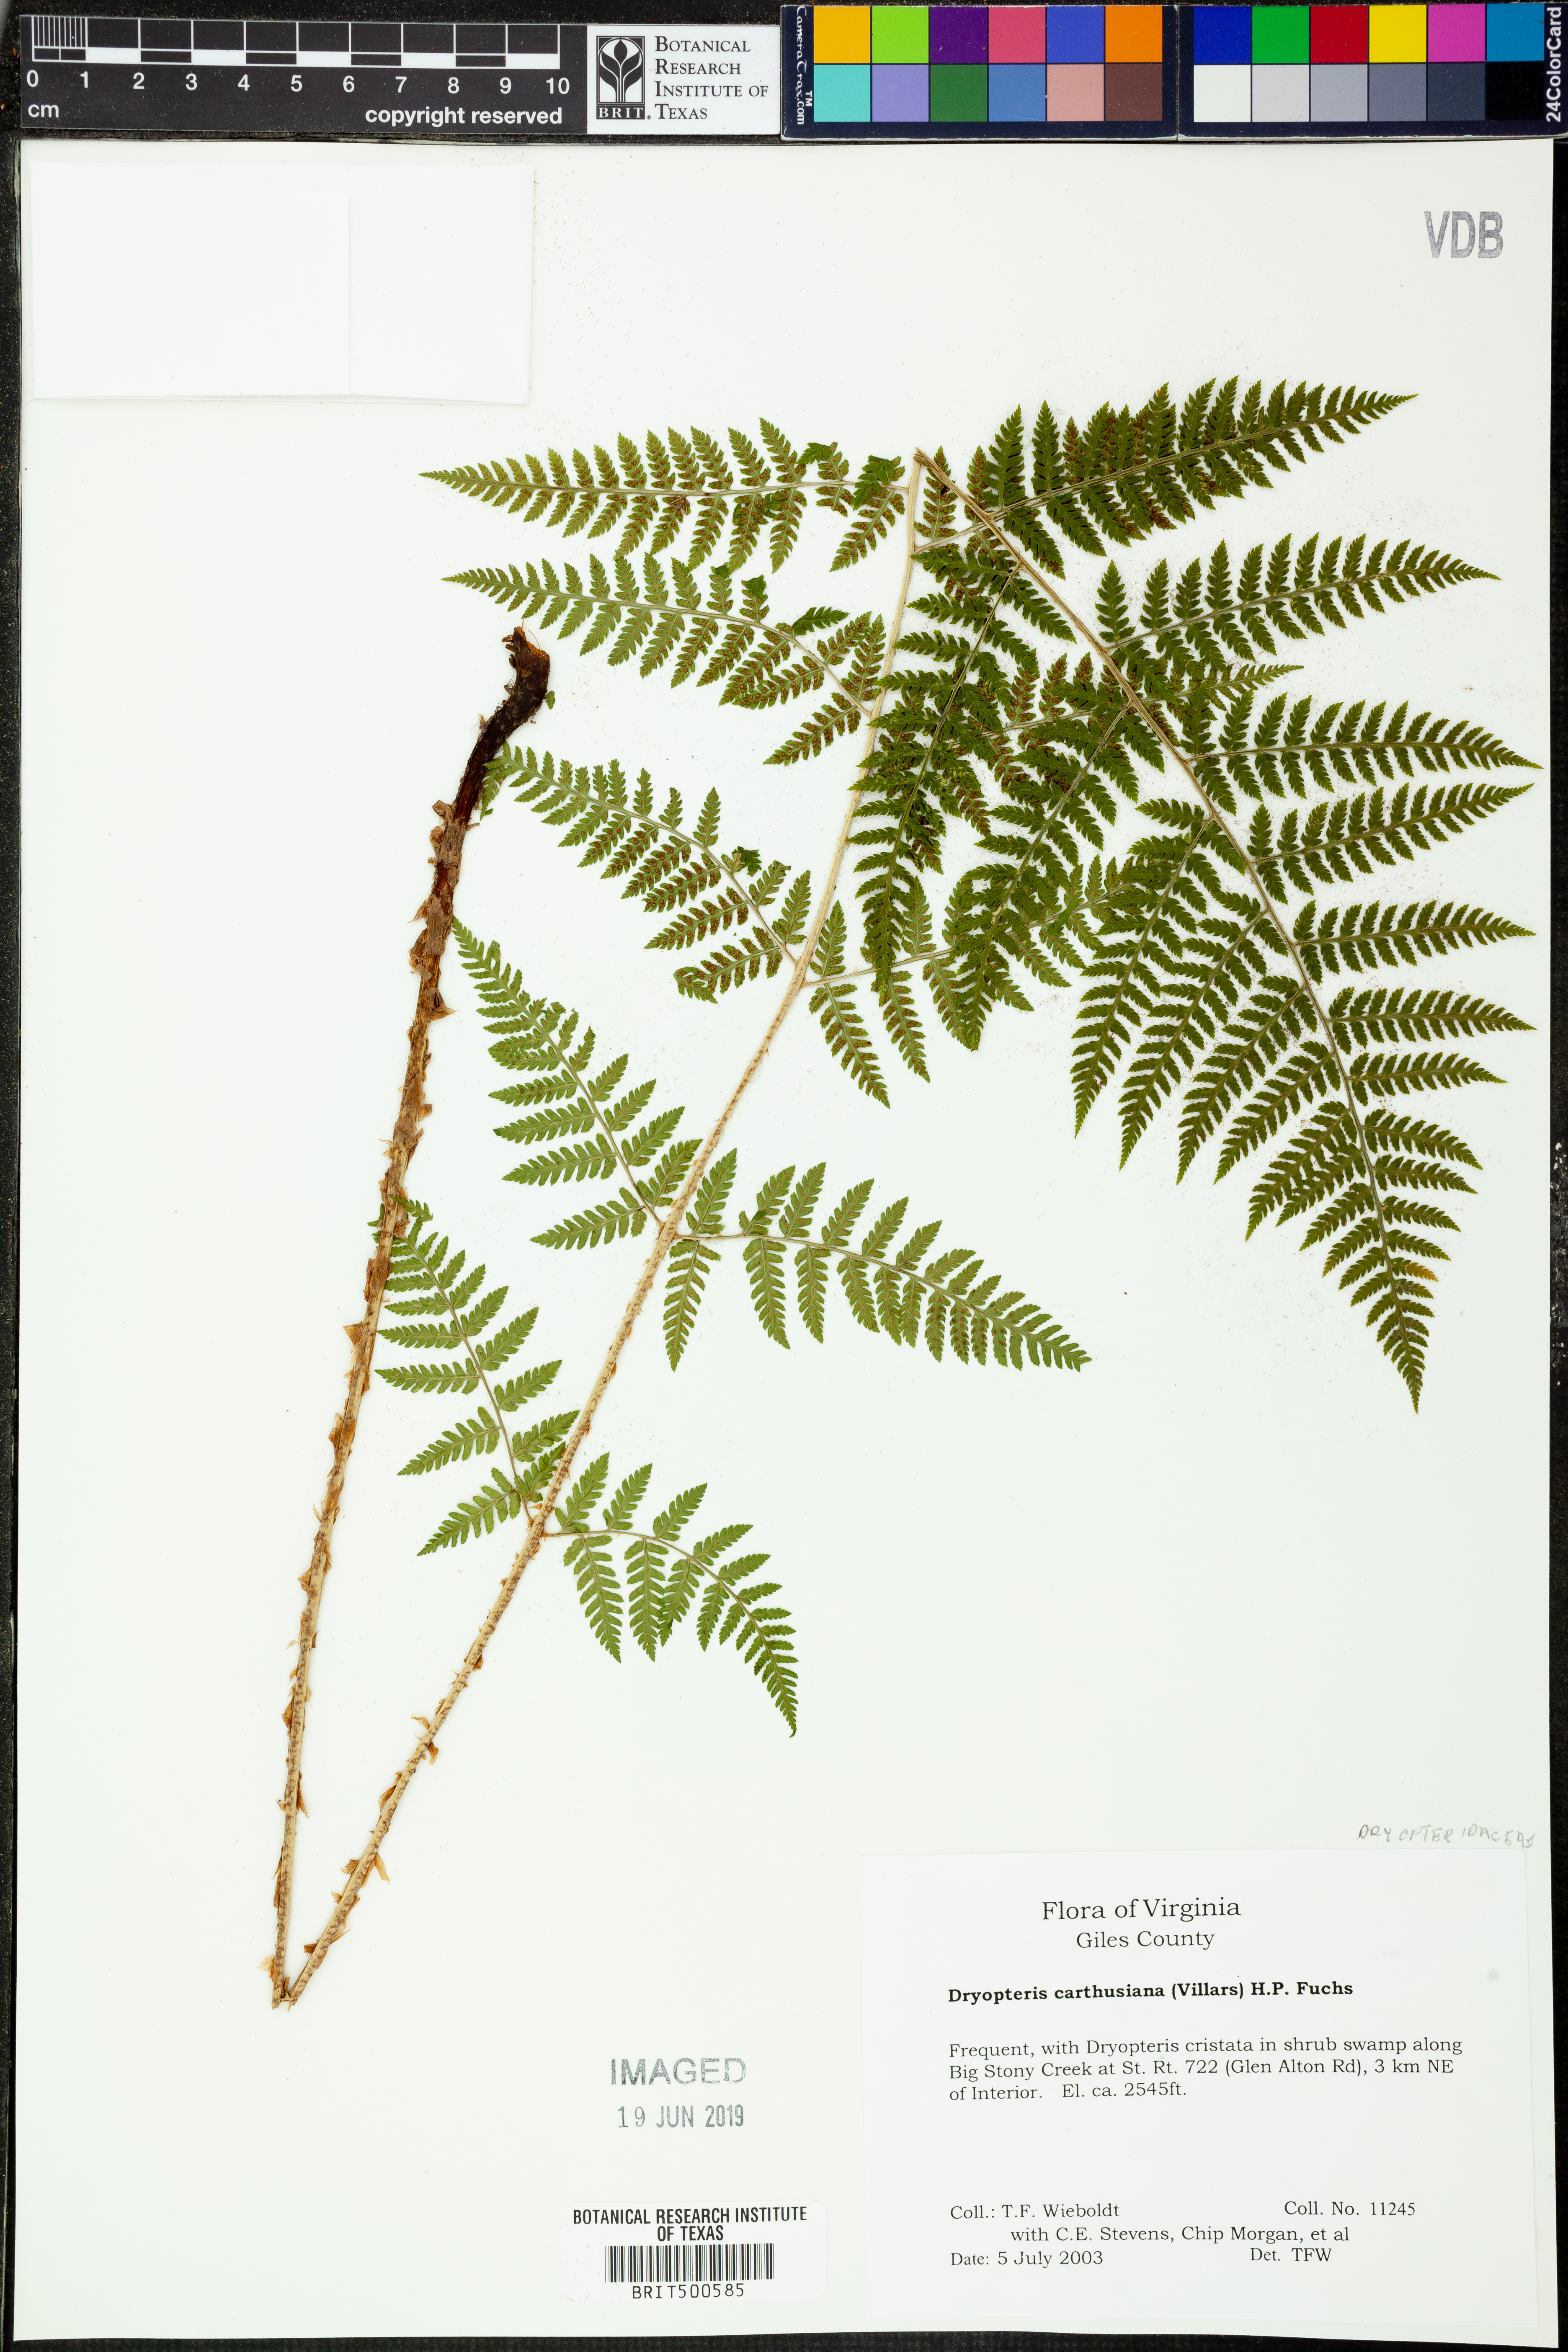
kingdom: Plantae
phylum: Tracheophyta
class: Polypodiopsida
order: Polypodiales
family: Dryopteridaceae
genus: Dryopteris
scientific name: Dryopteris carthusiana
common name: Narrow buckler-fern
